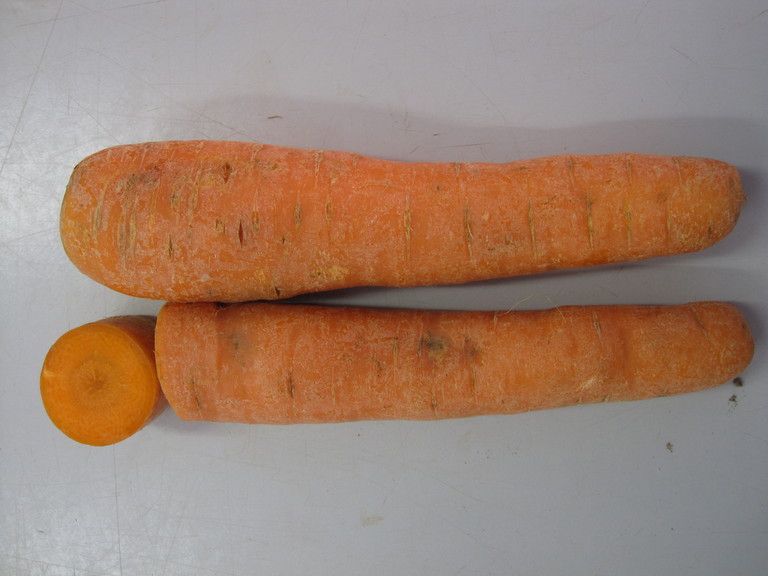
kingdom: Plantae
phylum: Tracheophyta
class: Magnoliopsida
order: Apiales
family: Apiaceae
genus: Daucus
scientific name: Daucus carota
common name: Wild carrot
